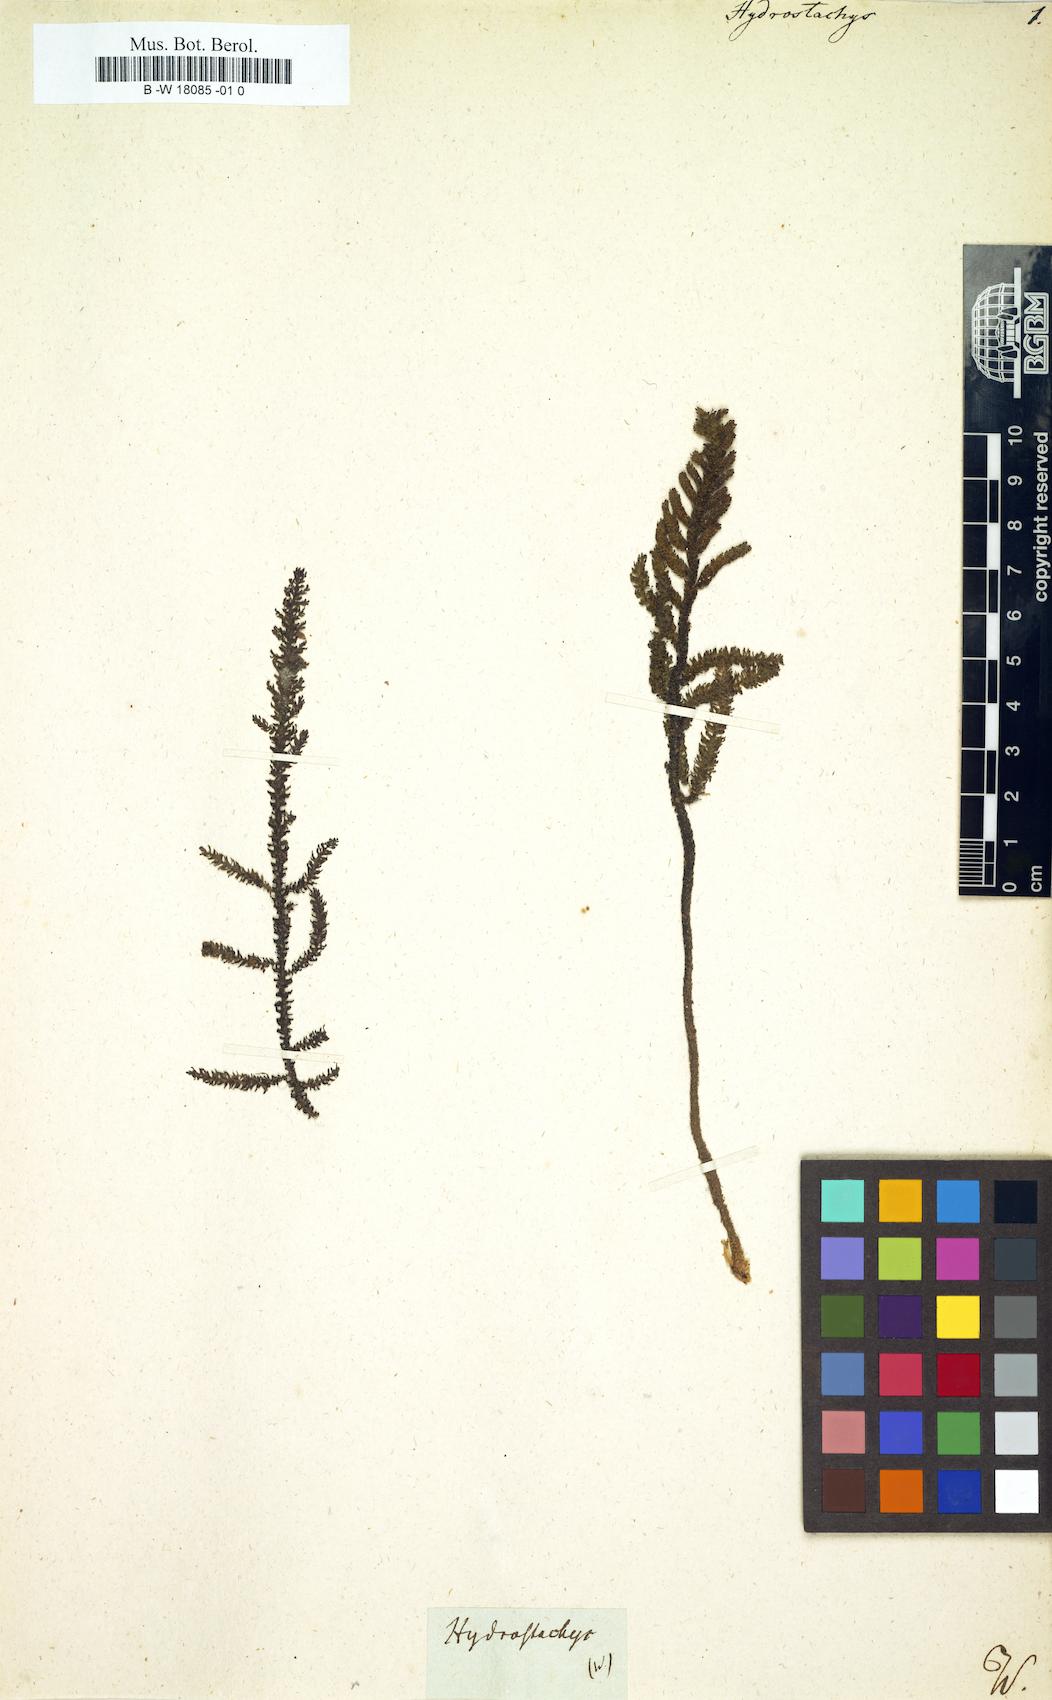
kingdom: Plantae
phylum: Tracheophyta
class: Magnoliopsida
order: Cornales
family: Hydrostachyaceae
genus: Hydrostachys
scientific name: Hydrostachys
